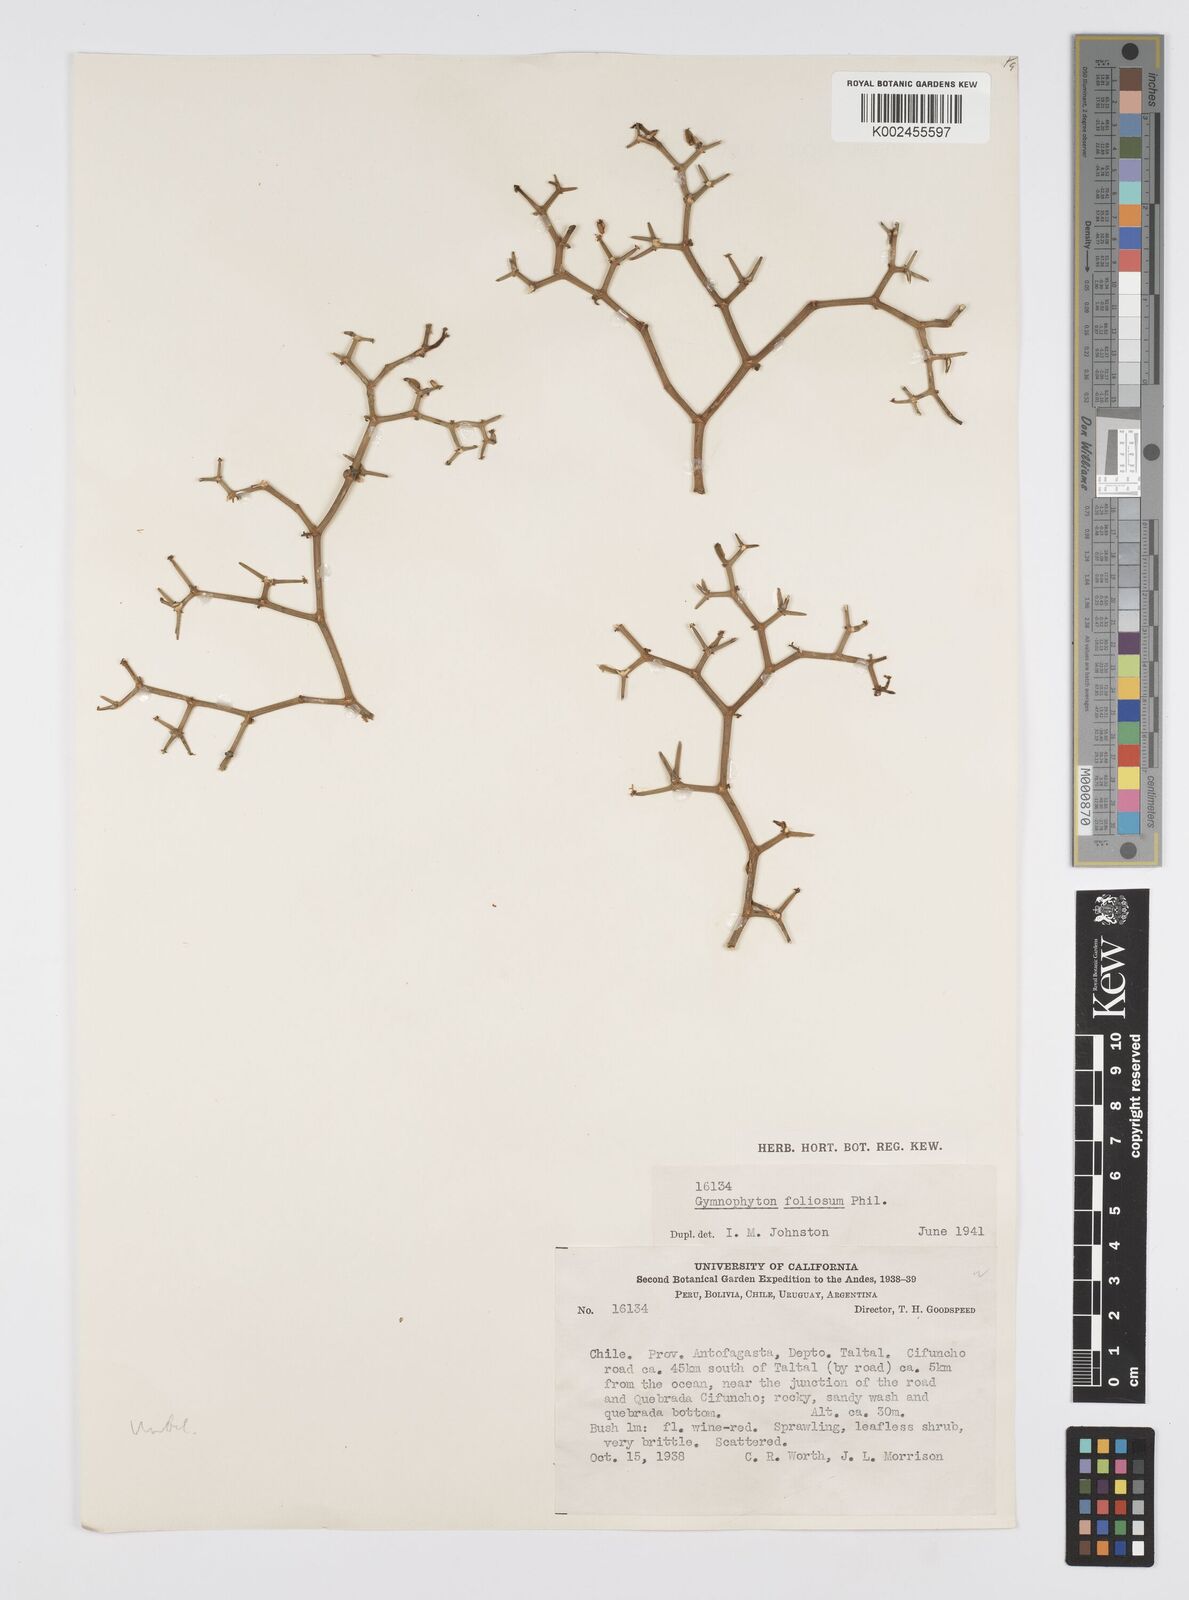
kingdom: Plantae
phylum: Tracheophyta
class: Magnoliopsida
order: Apiales
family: Apiaceae
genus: Gymnophyton
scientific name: Gymnophyton foliosum
